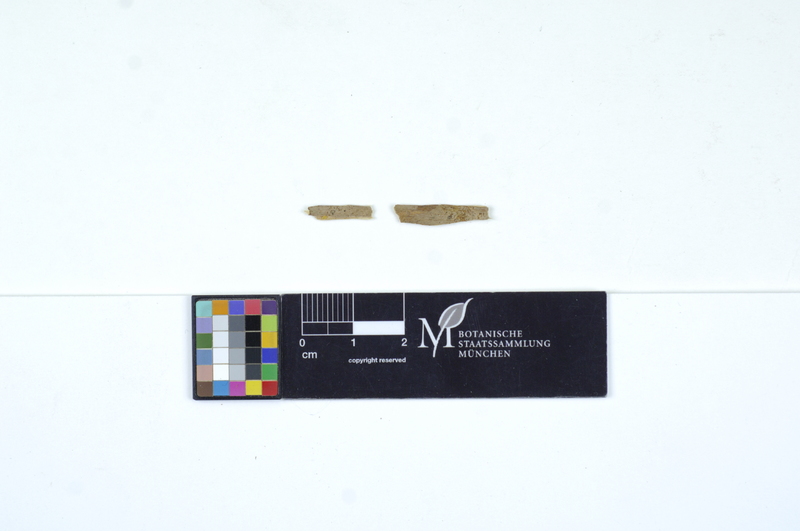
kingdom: Fungi
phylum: Basidiomycota
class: Agaricomycetes
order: Auriculariales
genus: Basidiodendron
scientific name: Basidiodendron eyrei
